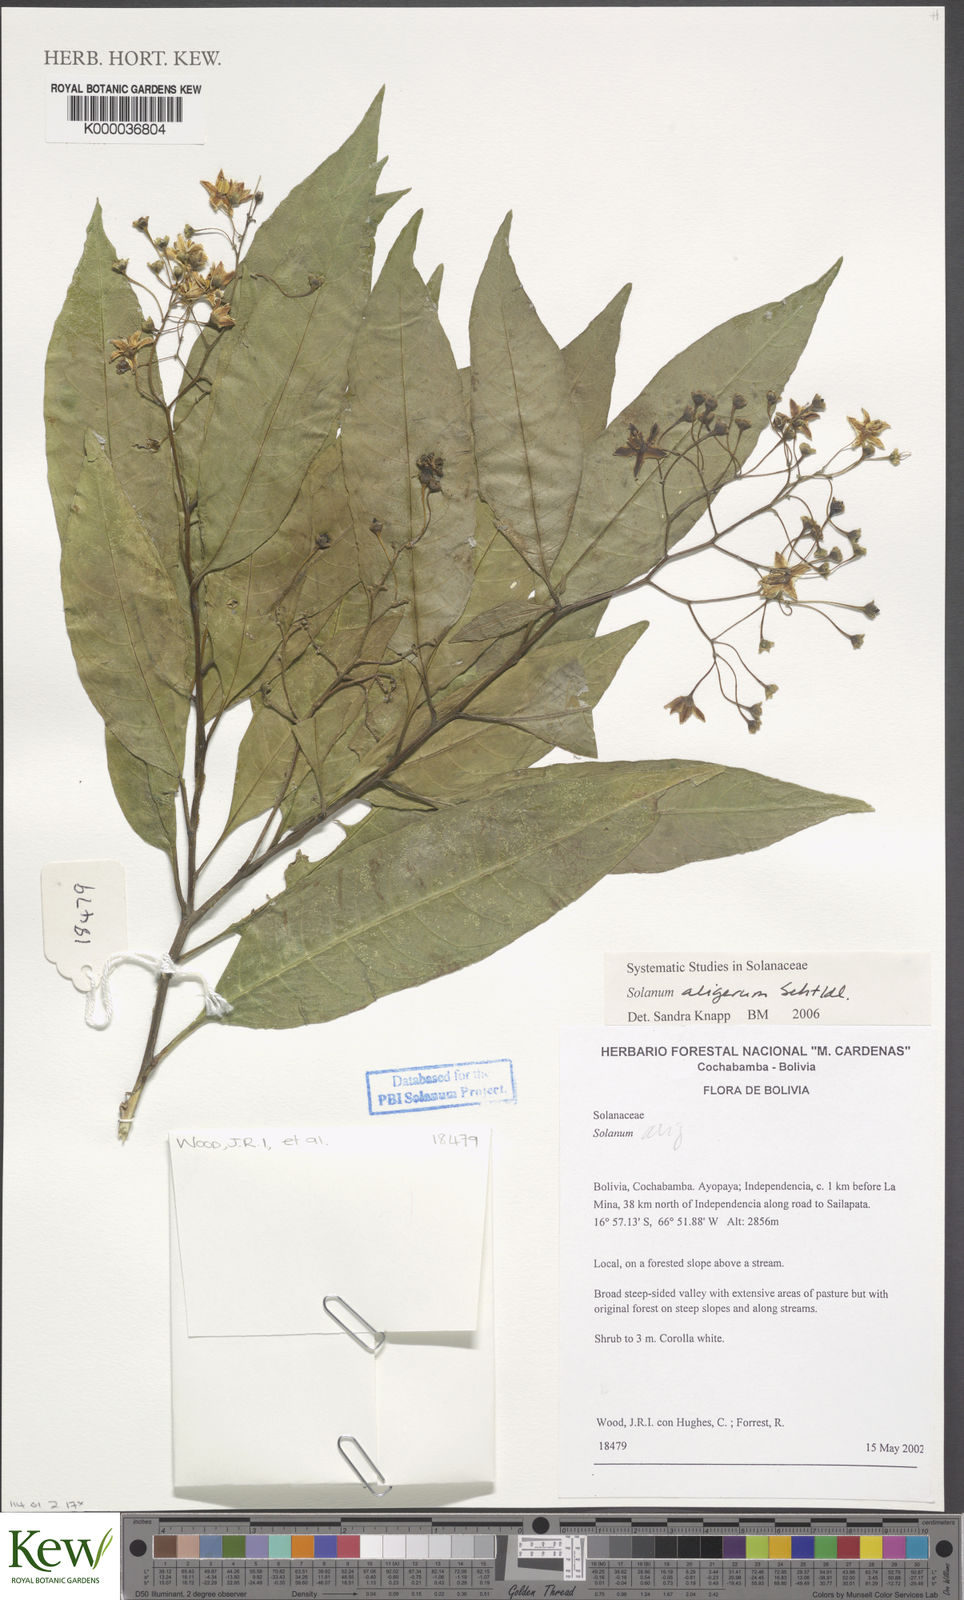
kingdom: Plantae
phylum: Tracheophyta
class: Magnoliopsida
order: Solanales
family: Solanaceae
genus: Solanum
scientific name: Solanum aligerum
